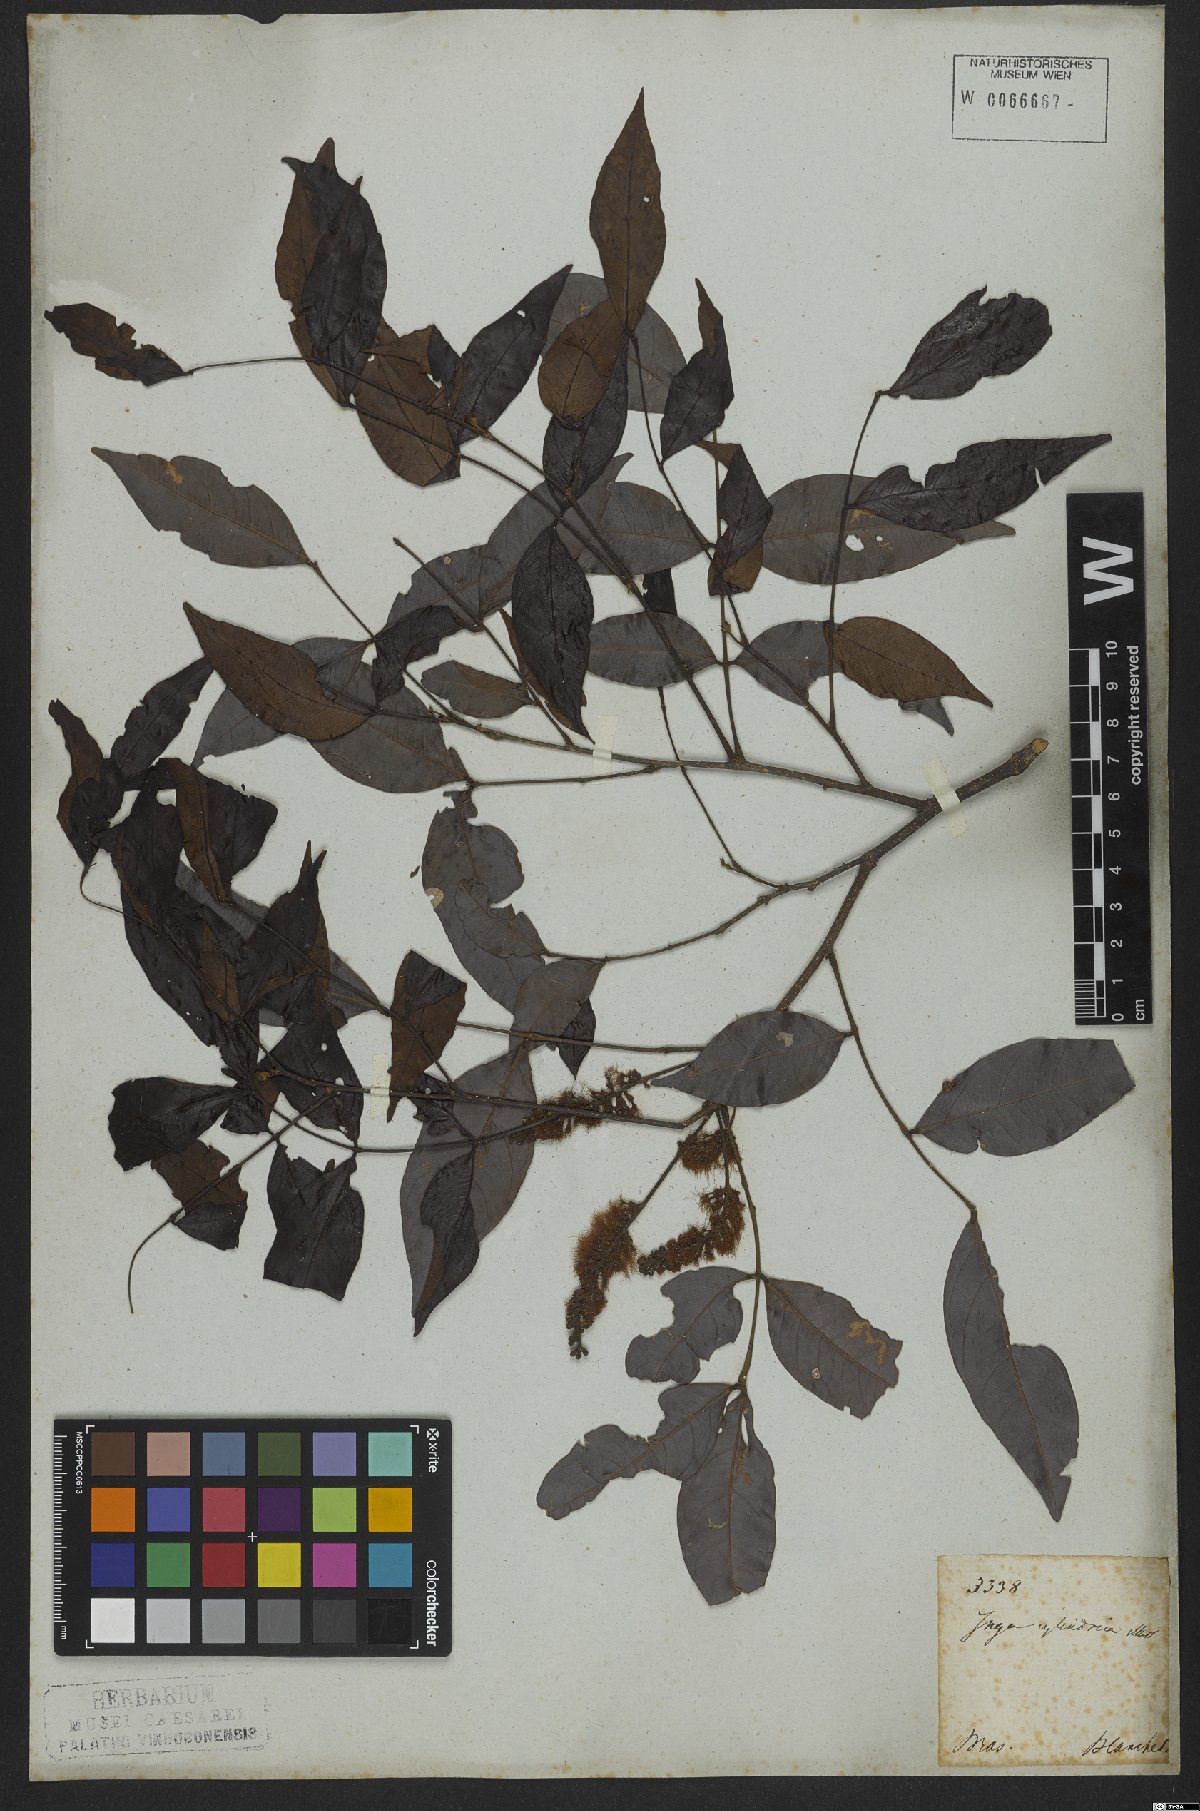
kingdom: Plantae
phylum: Tracheophyta
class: Magnoliopsida
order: Fabales
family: Fabaceae
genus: Inga
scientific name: Inga cylindrica
